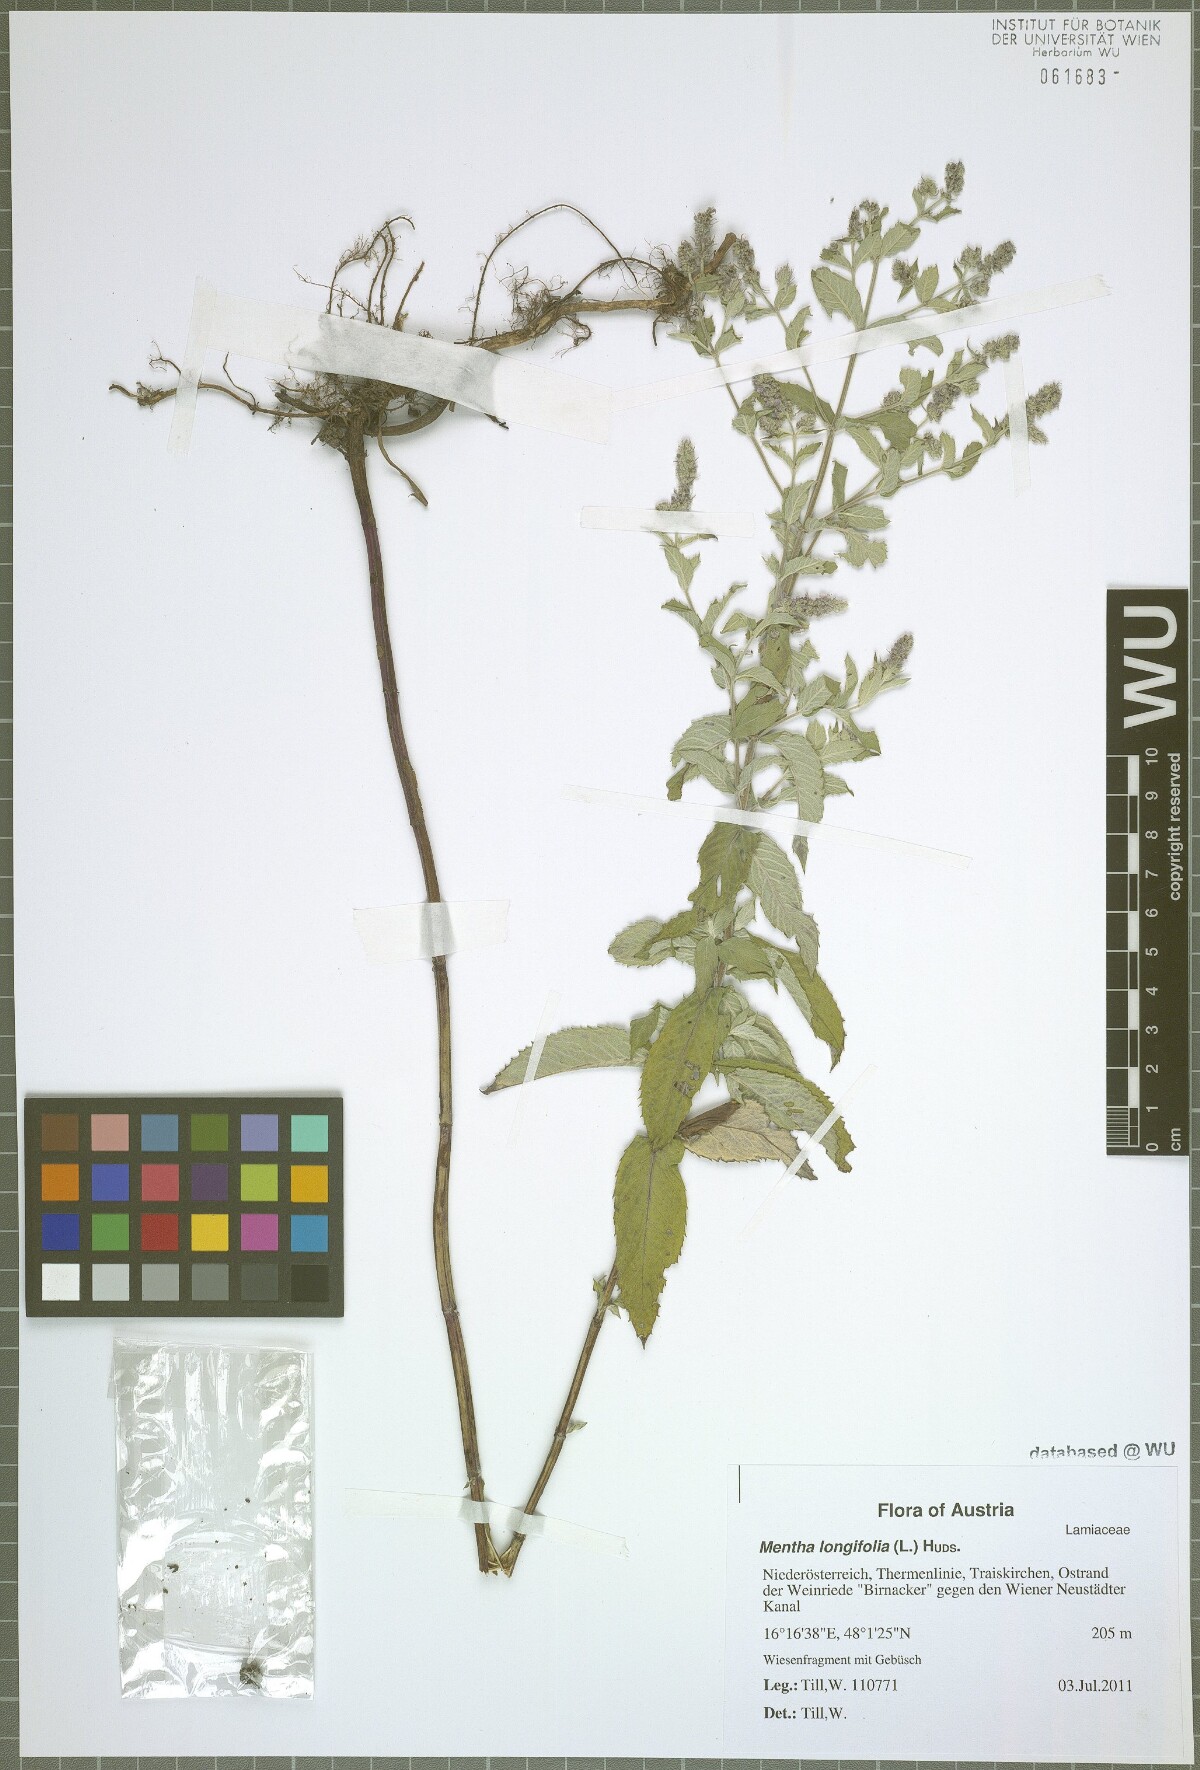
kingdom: Plantae
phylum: Tracheophyta
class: Magnoliopsida
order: Lamiales
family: Lamiaceae
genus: Mentha
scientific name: Mentha longifolia
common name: Horse mint
